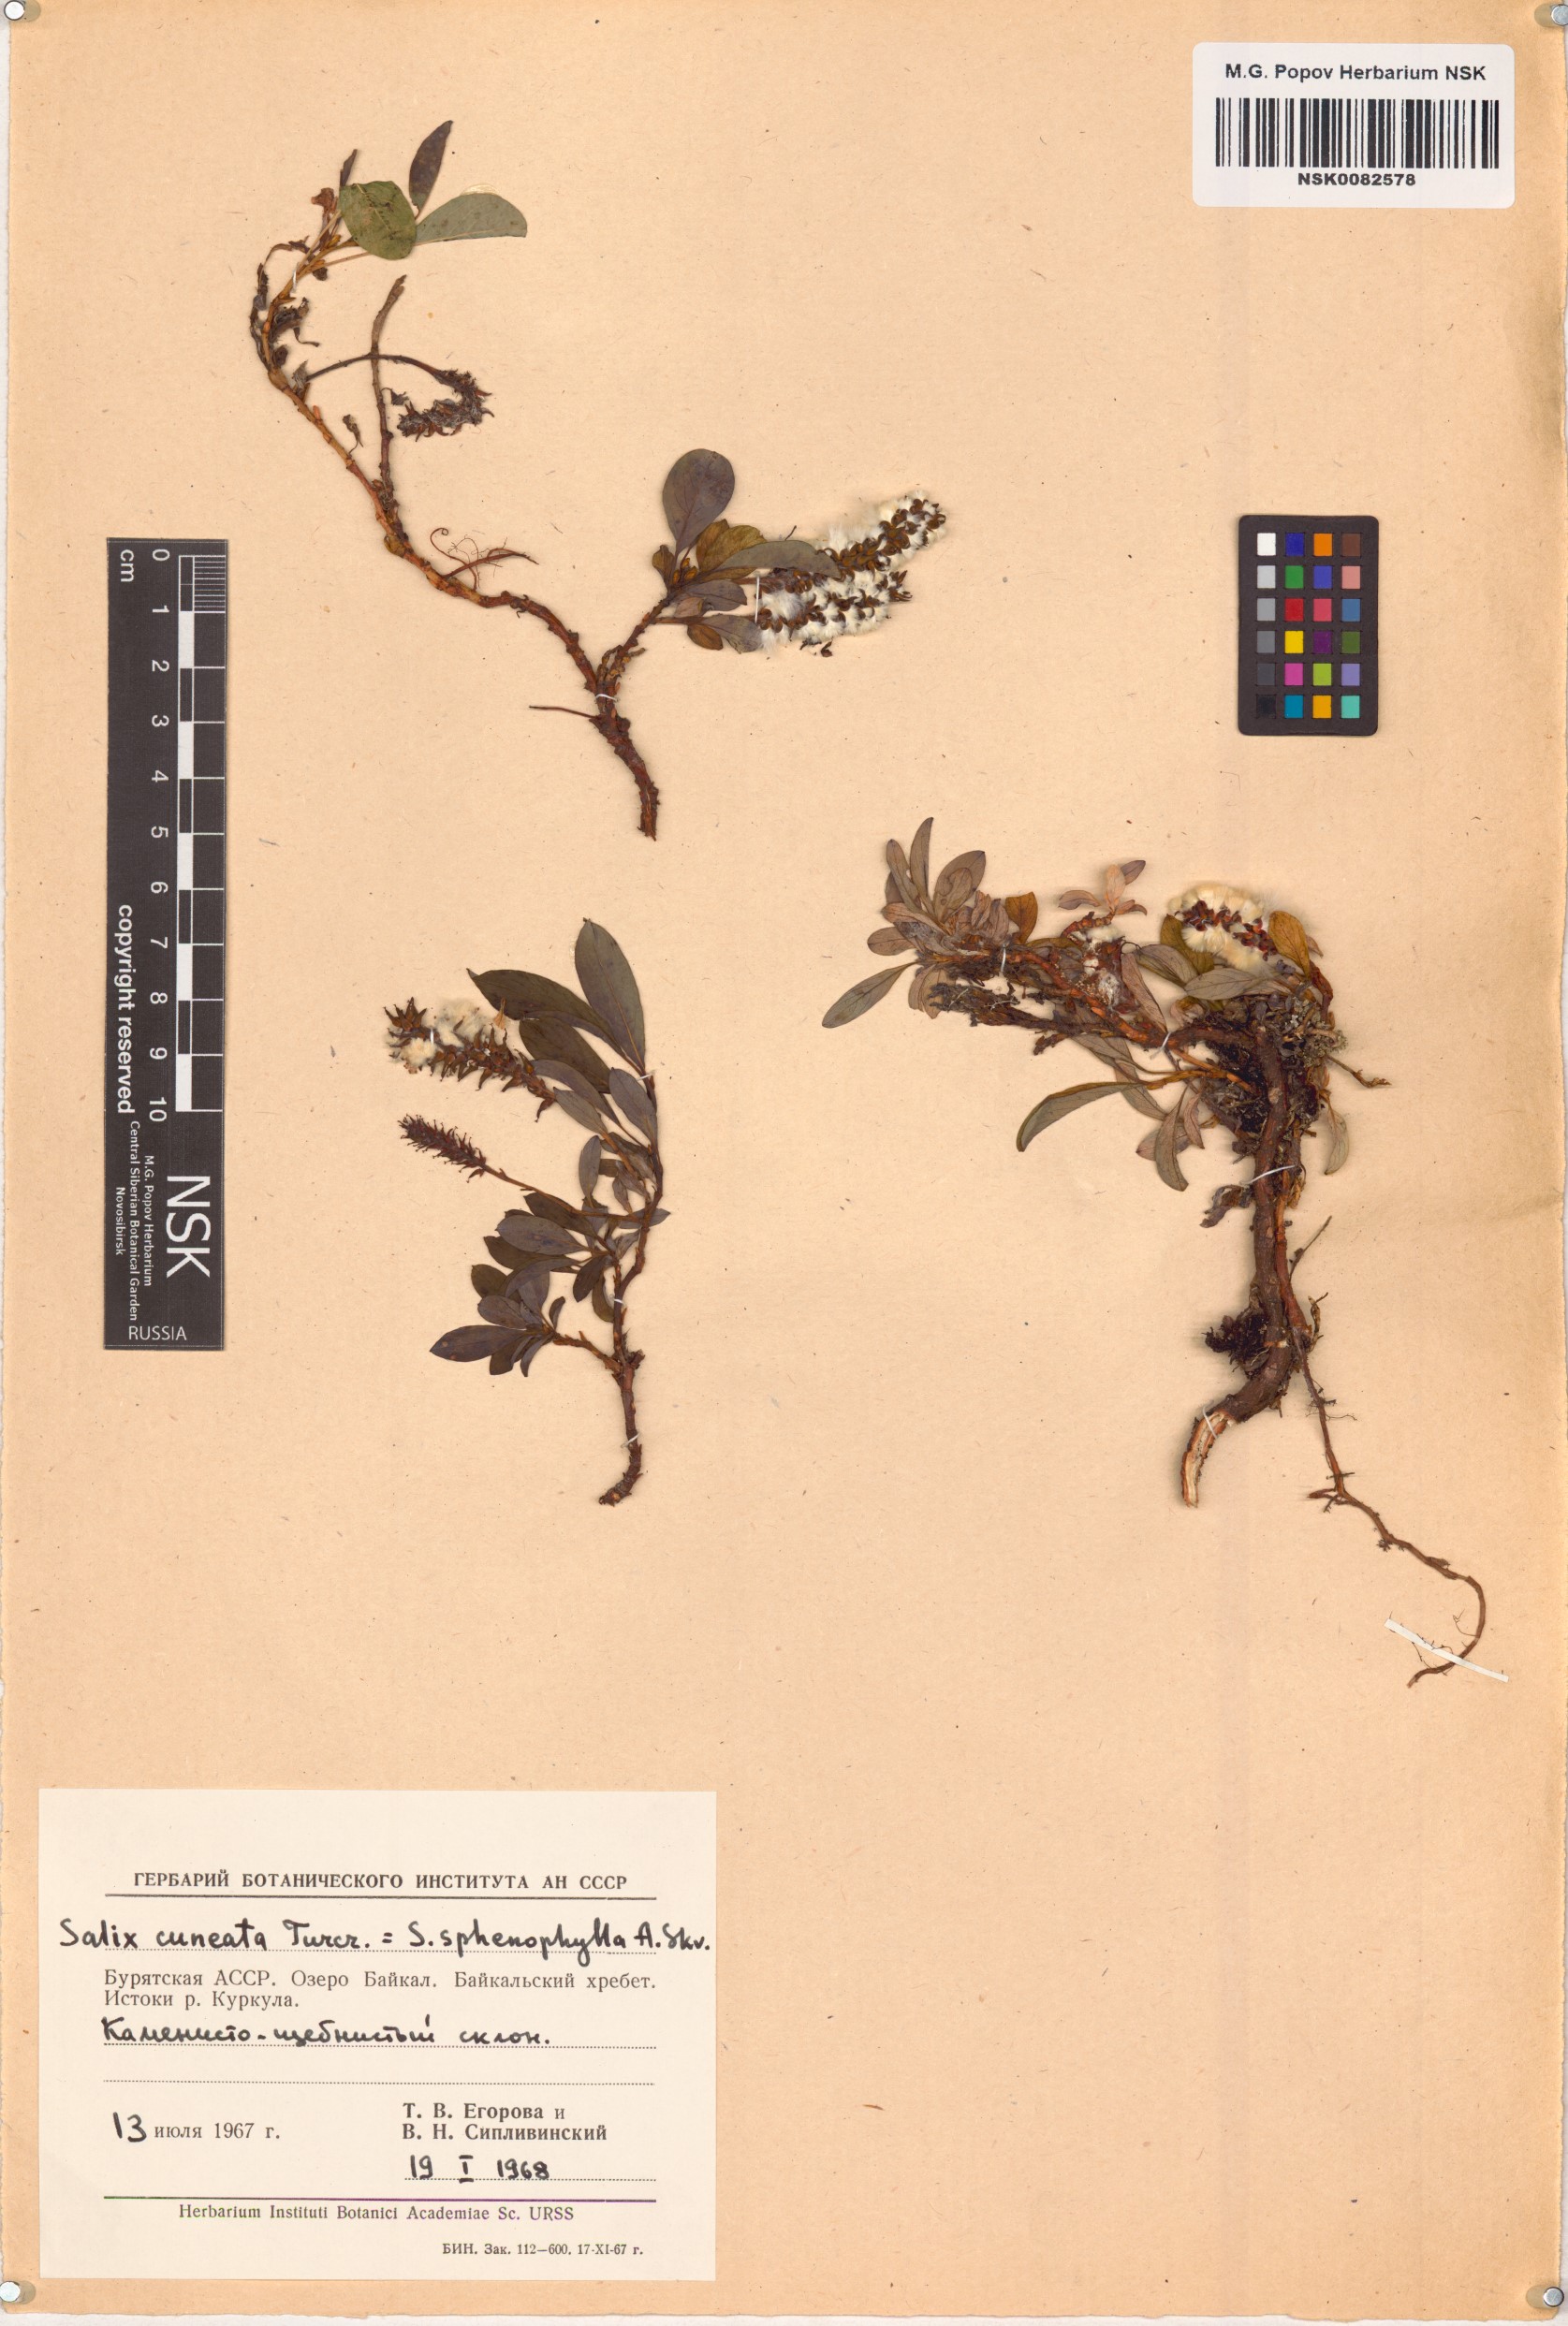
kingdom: Plantae
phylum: Tracheophyta
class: Magnoliopsida
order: Malpighiales
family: Salicaceae
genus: Salix
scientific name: Salix sphenophylla
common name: Wedge-leaved willow
